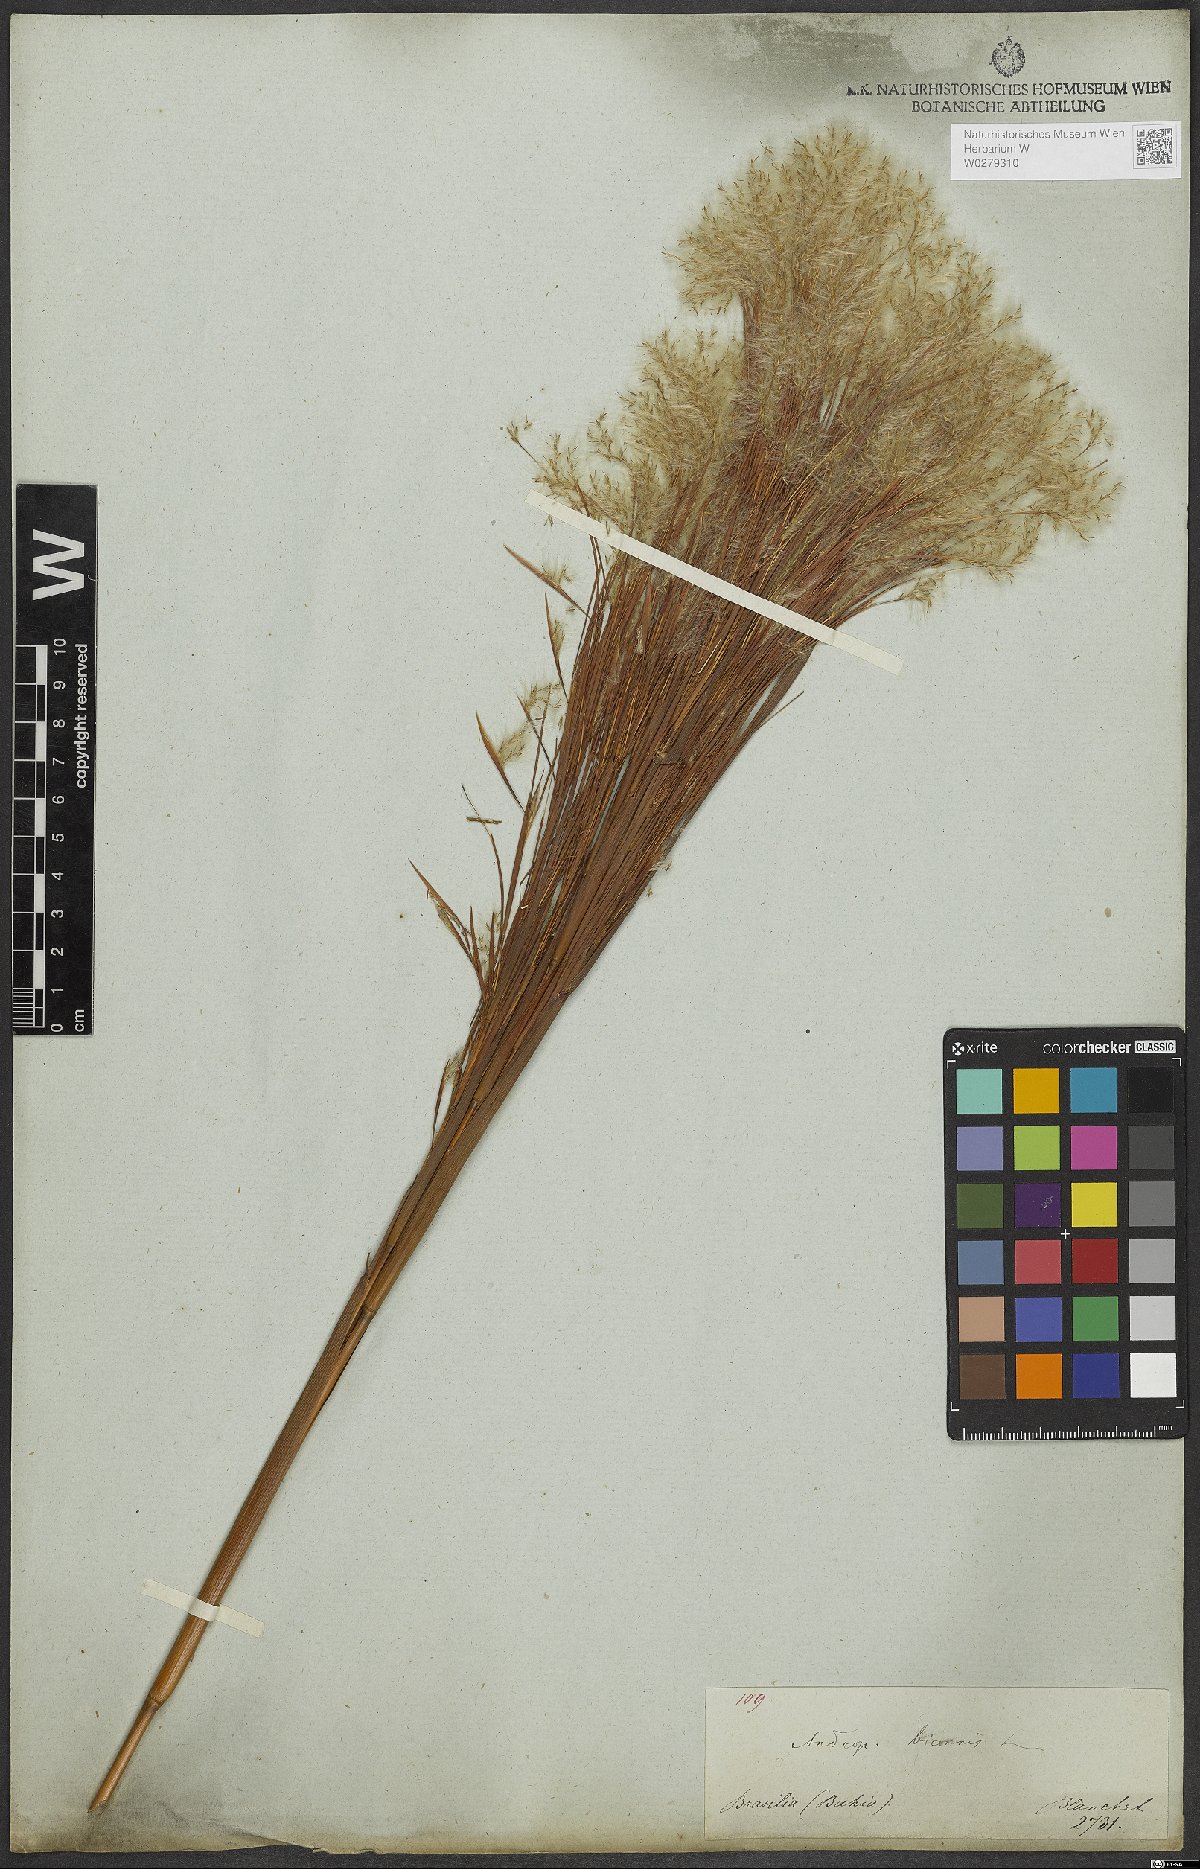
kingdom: Plantae
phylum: Tracheophyta
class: Liliopsida
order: Poales
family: Poaceae
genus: Andropogon
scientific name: Andropogon bicornis
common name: West indian foxtail grass
